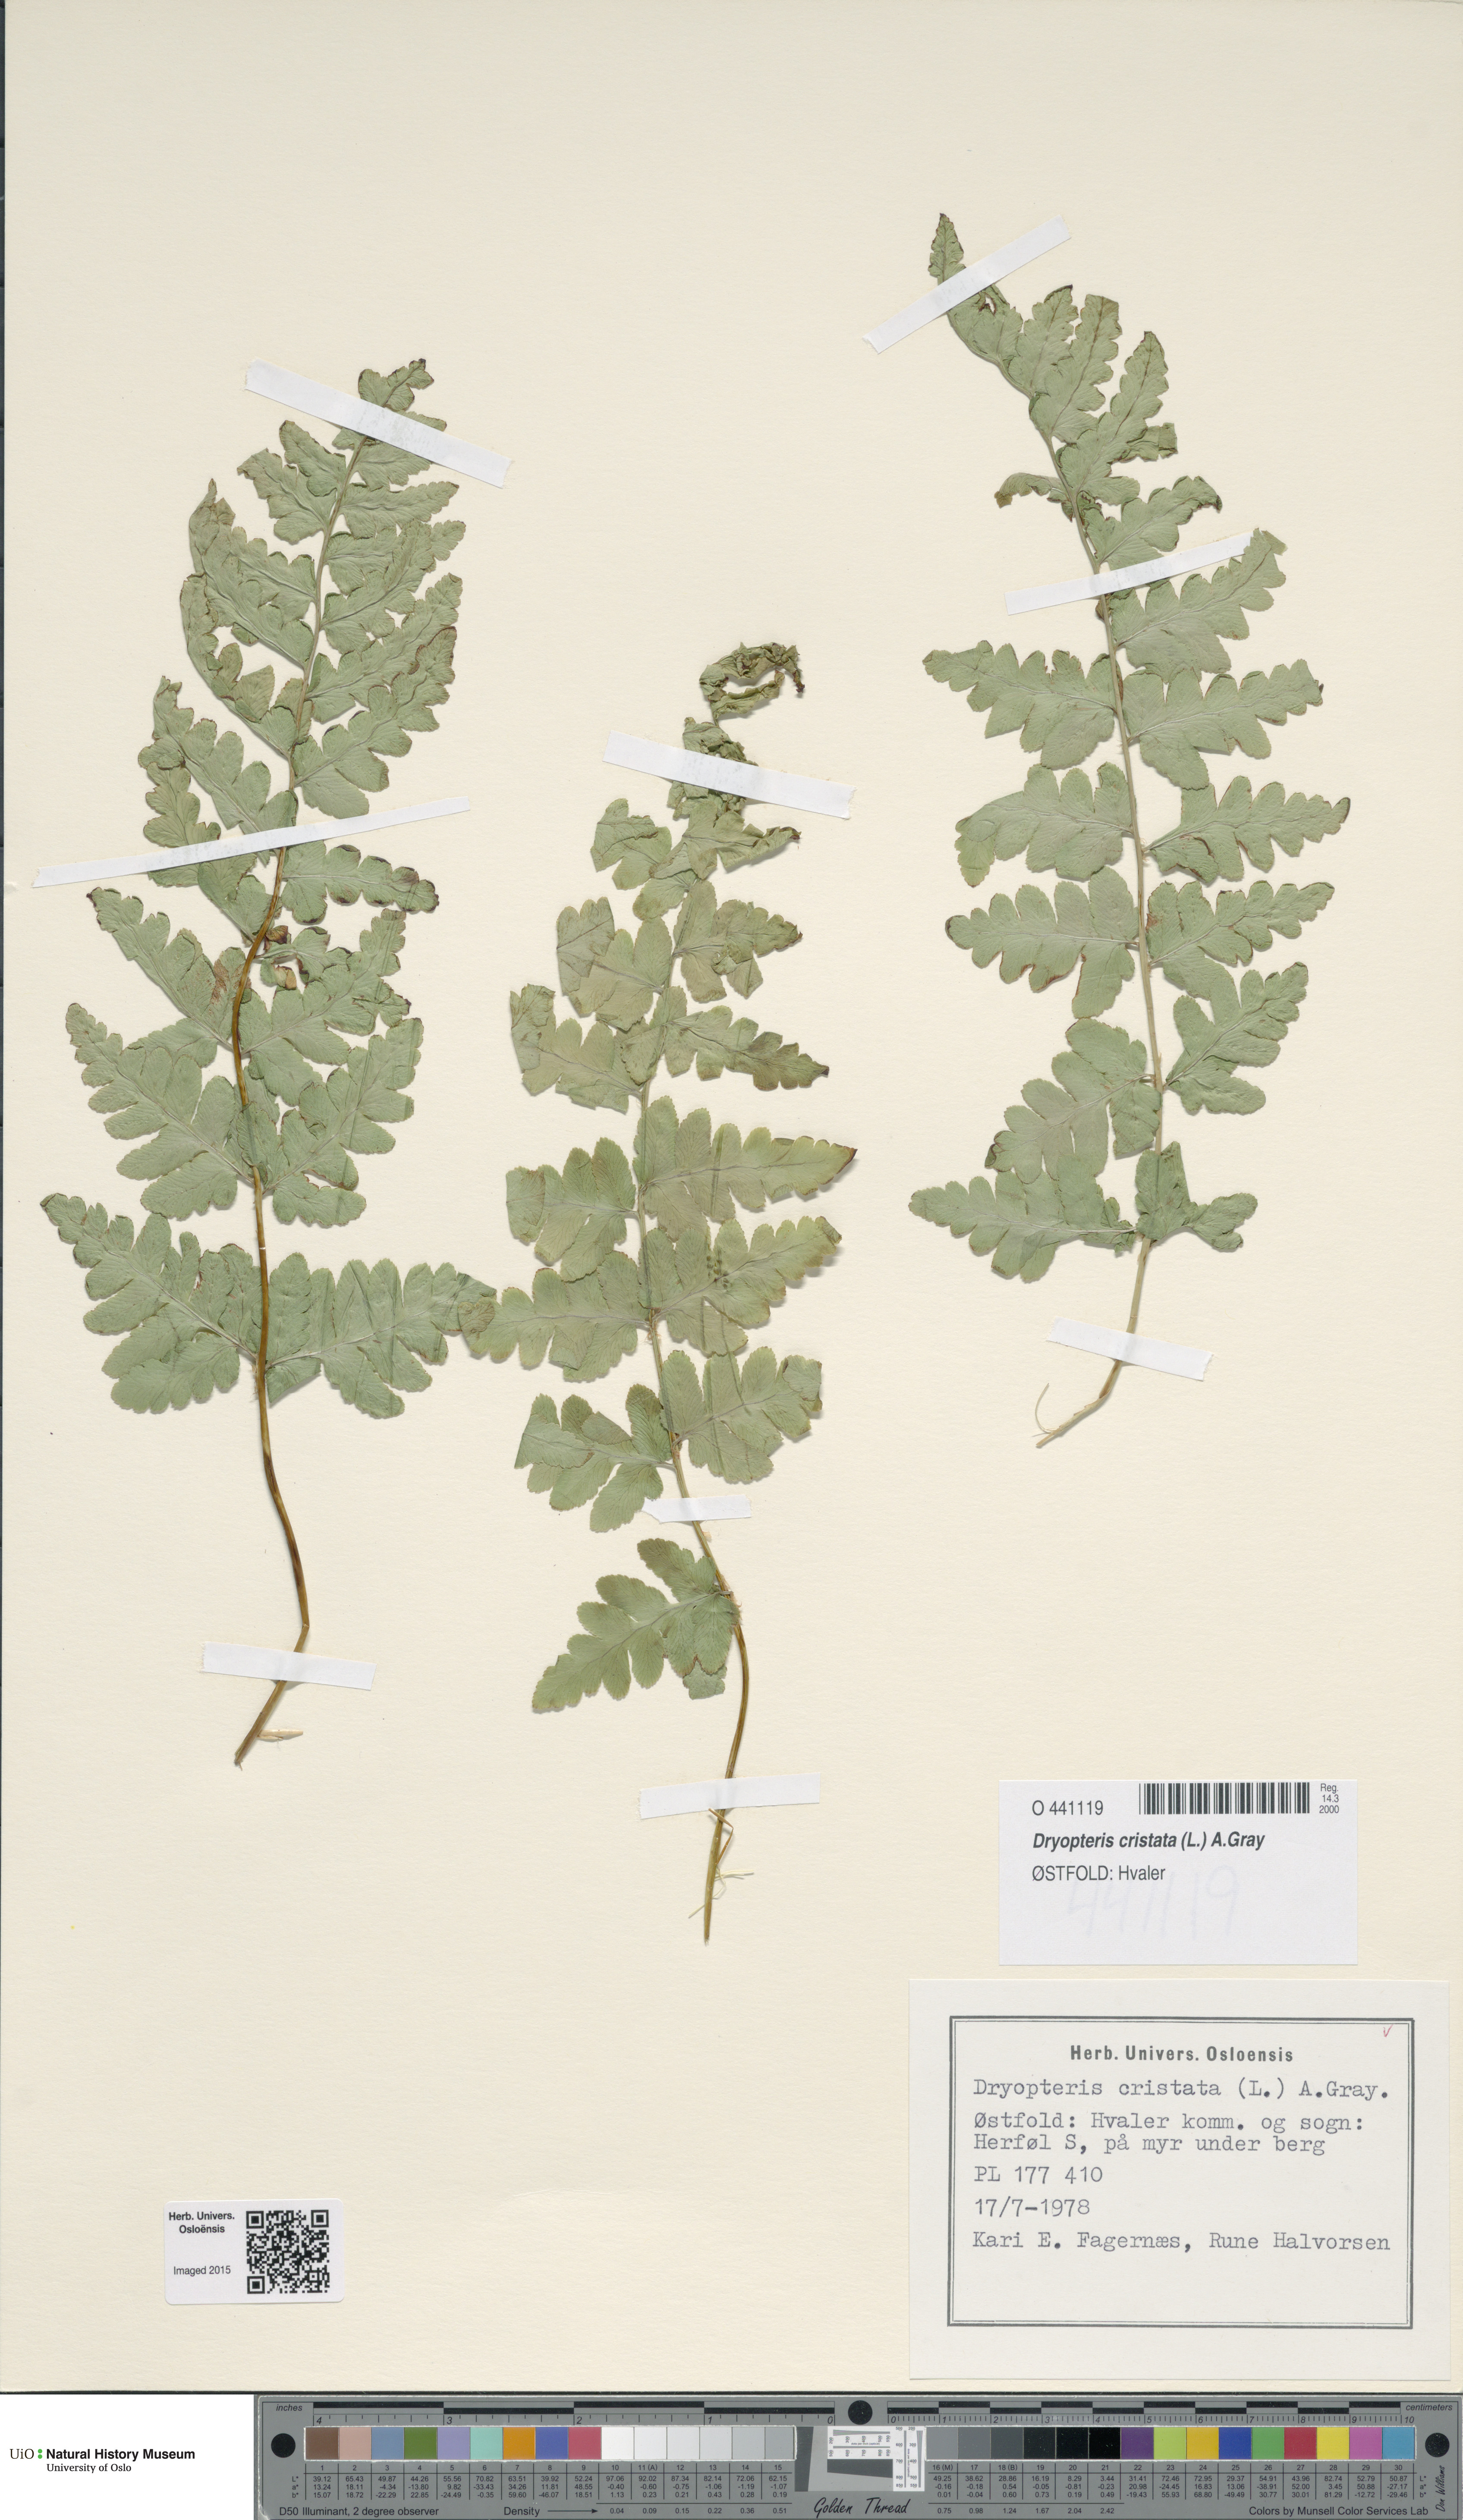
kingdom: Plantae
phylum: Tracheophyta
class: Polypodiopsida
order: Polypodiales
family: Dryopteridaceae
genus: Dryopteris
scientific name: Dryopteris cristata
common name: Crested wood fern
